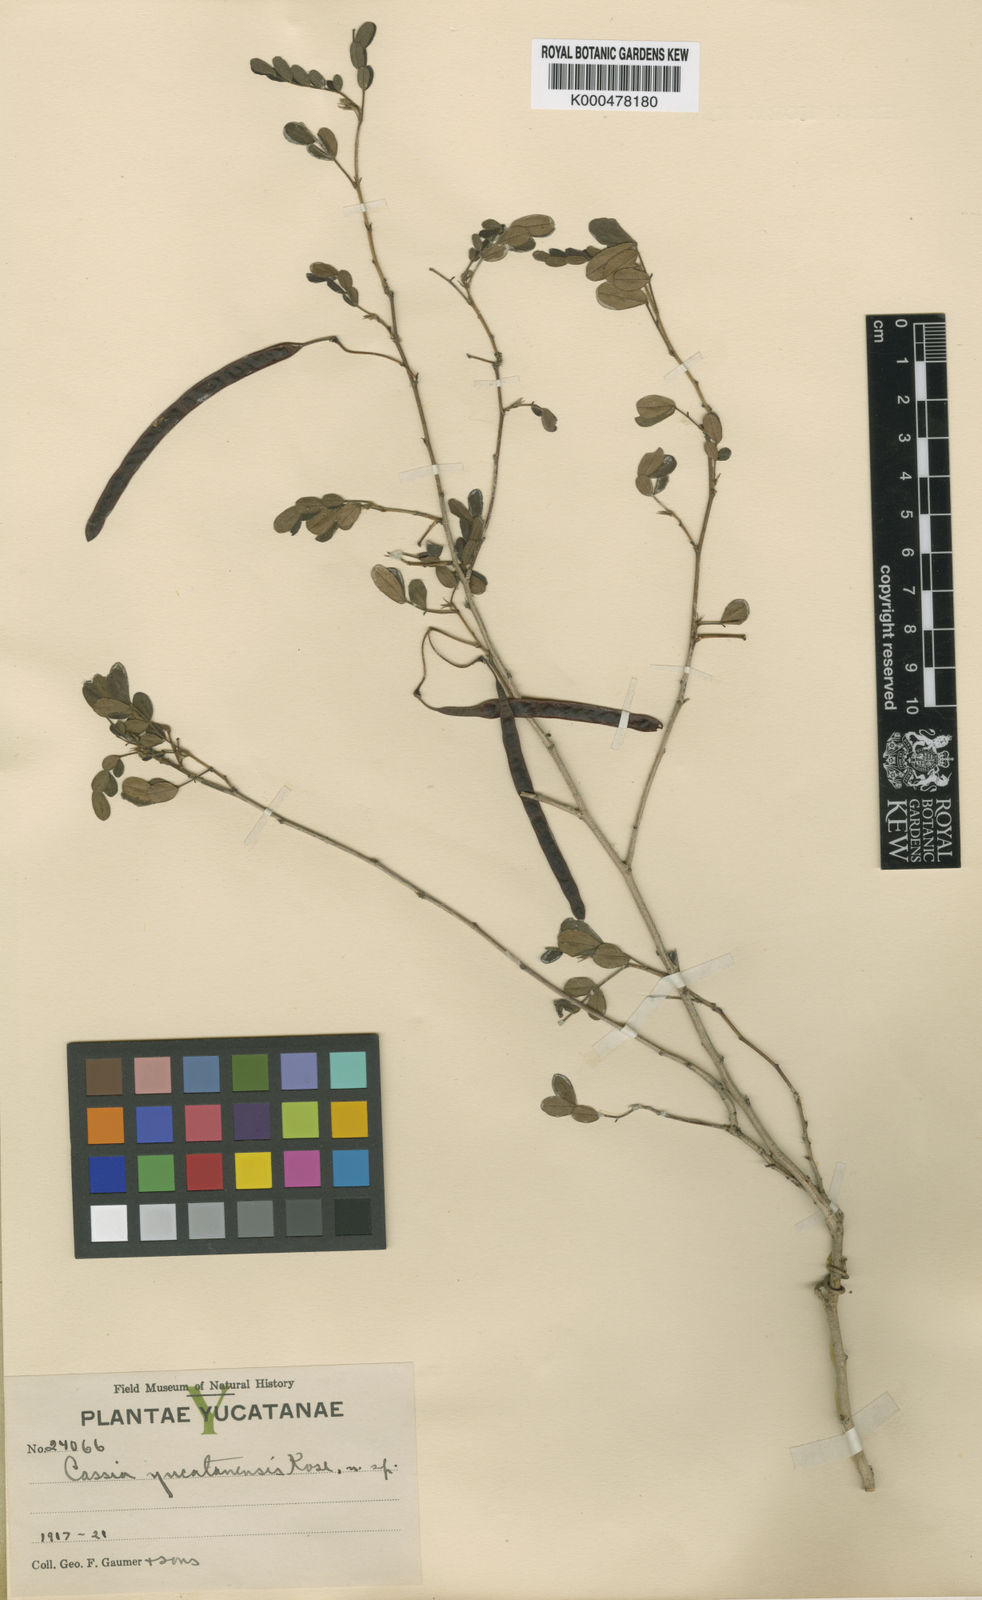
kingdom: Plantae
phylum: Tracheophyta
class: Magnoliopsida
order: Fabales
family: Fabaceae
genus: Senna
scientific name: Senna pallida
